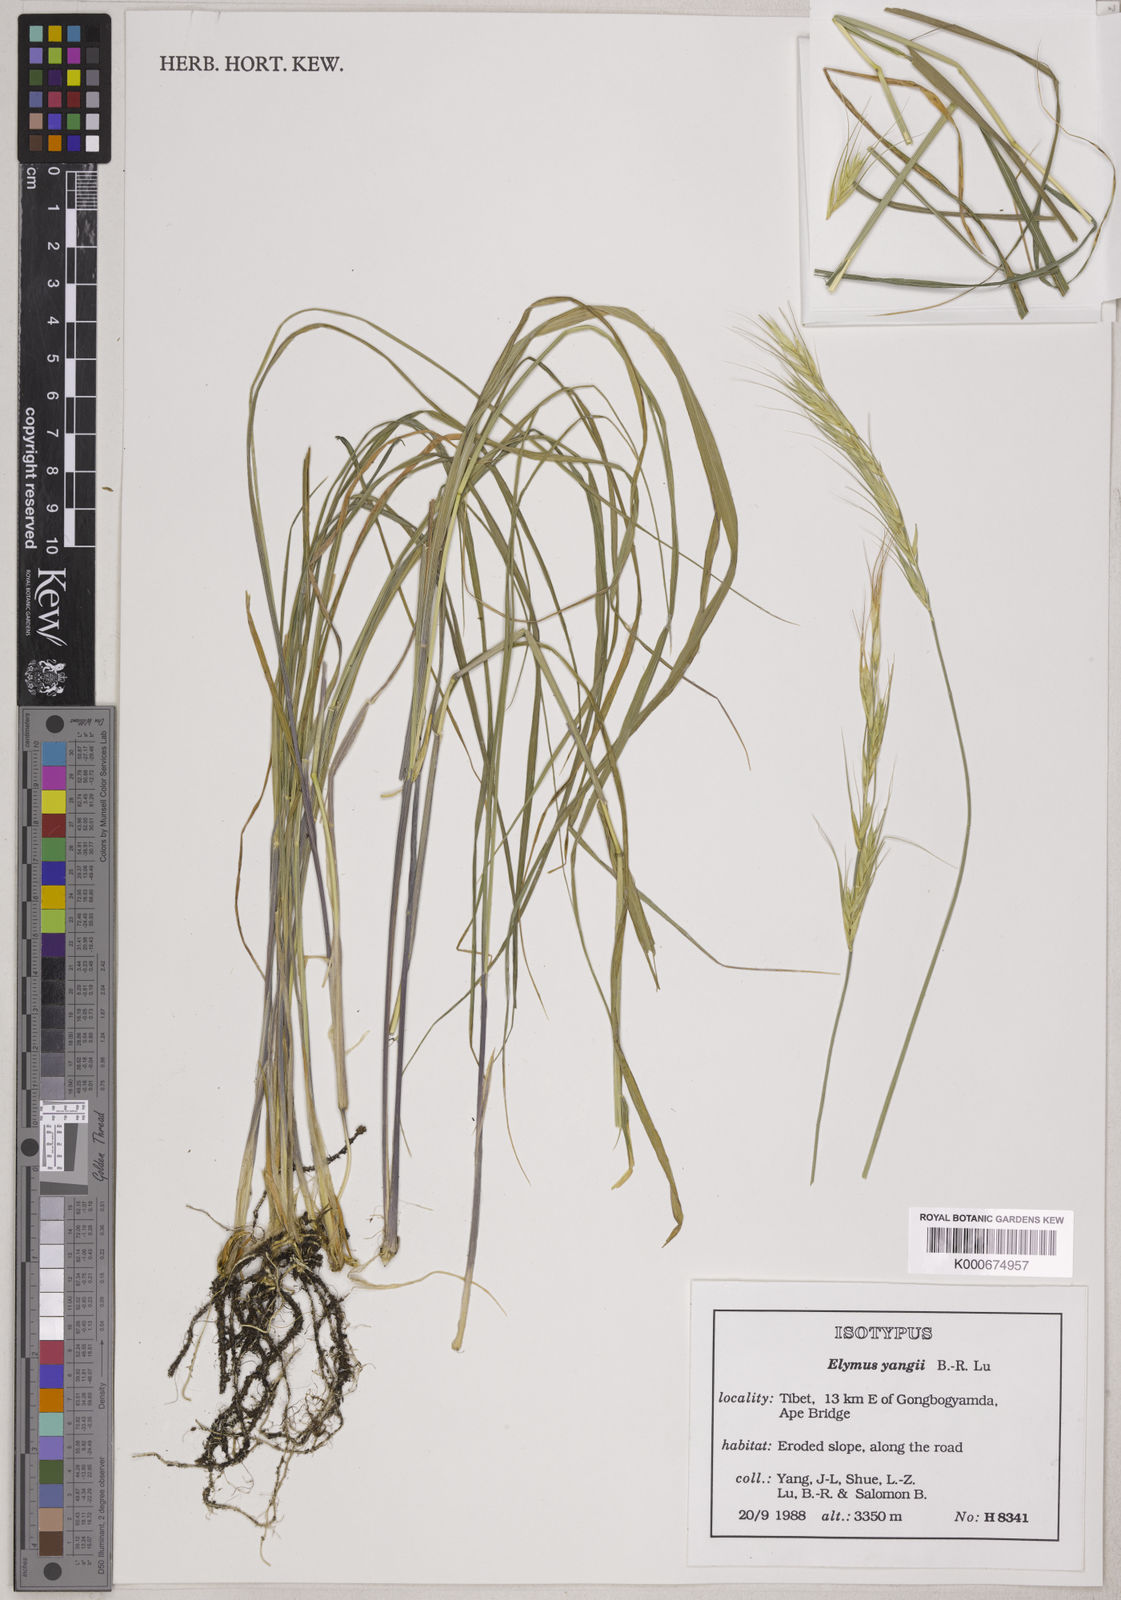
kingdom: Plantae
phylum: Tracheophyta
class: Liliopsida
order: Poales
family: Poaceae
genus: Elymus
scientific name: Elymus yangiae
